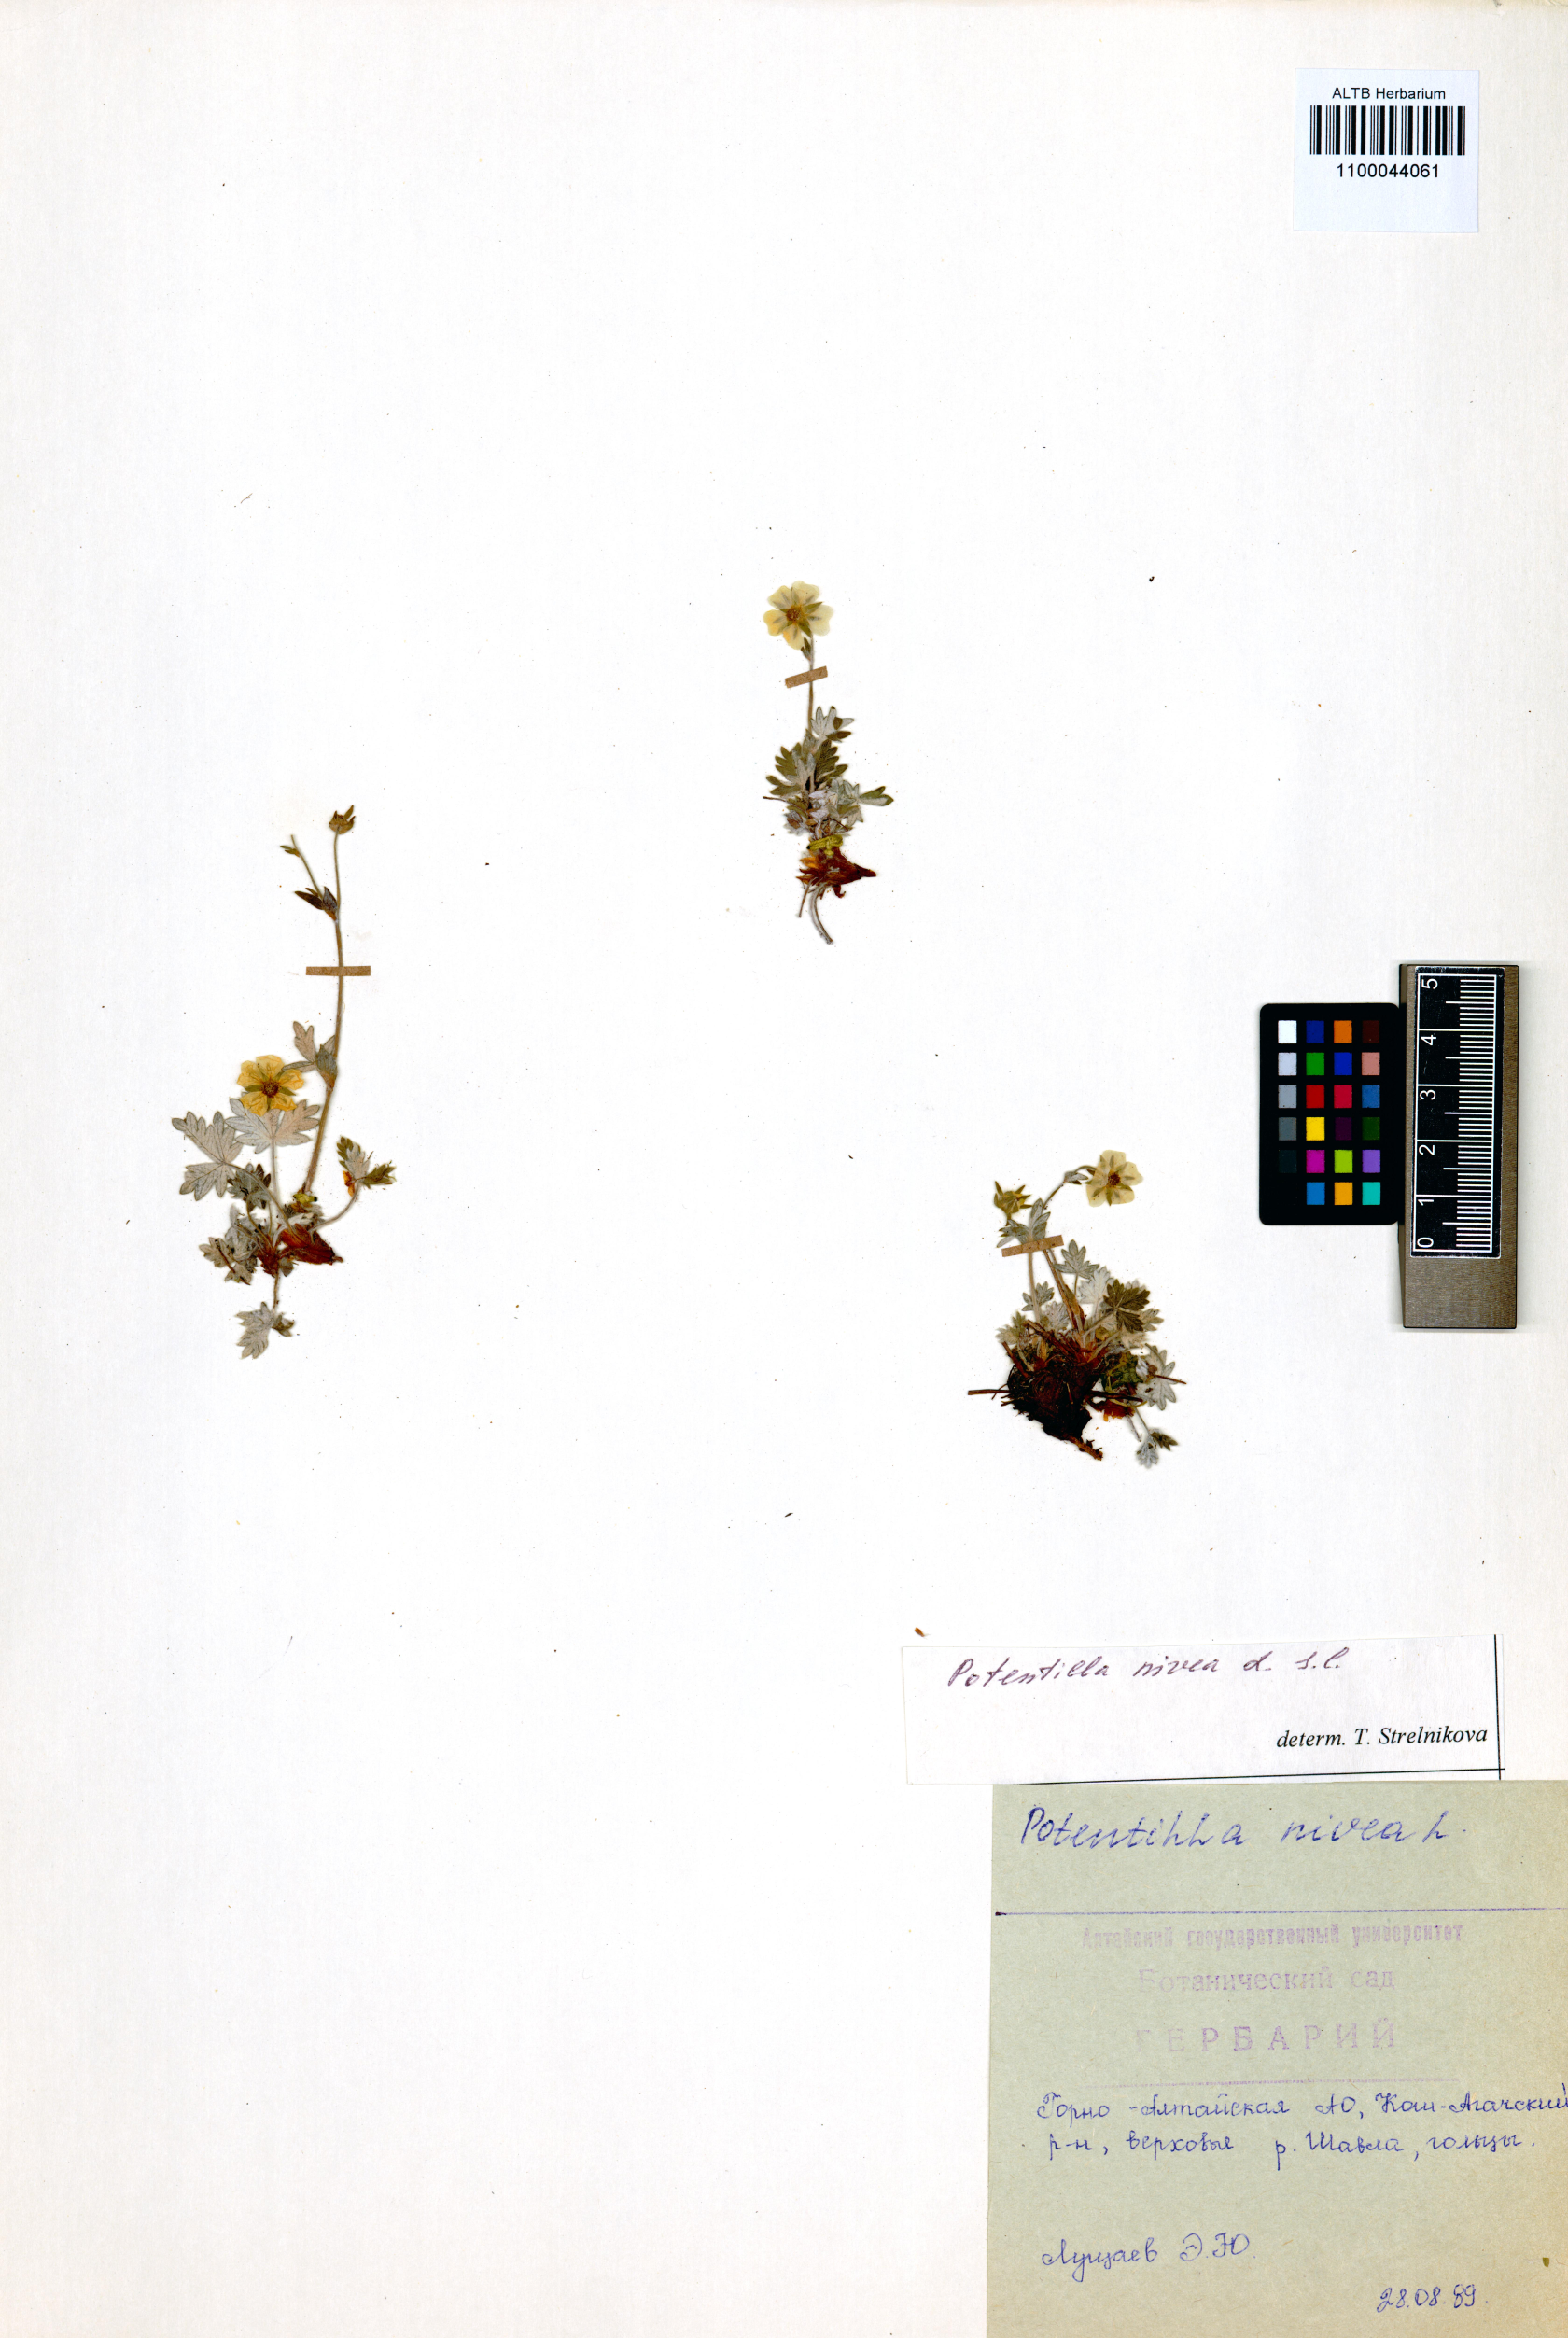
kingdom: Plantae
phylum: Tracheophyta
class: Magnoliopsida
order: Rosales
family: Rosaceae
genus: Potentilla
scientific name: Potentilla nivea
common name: Snow cinquefoil
